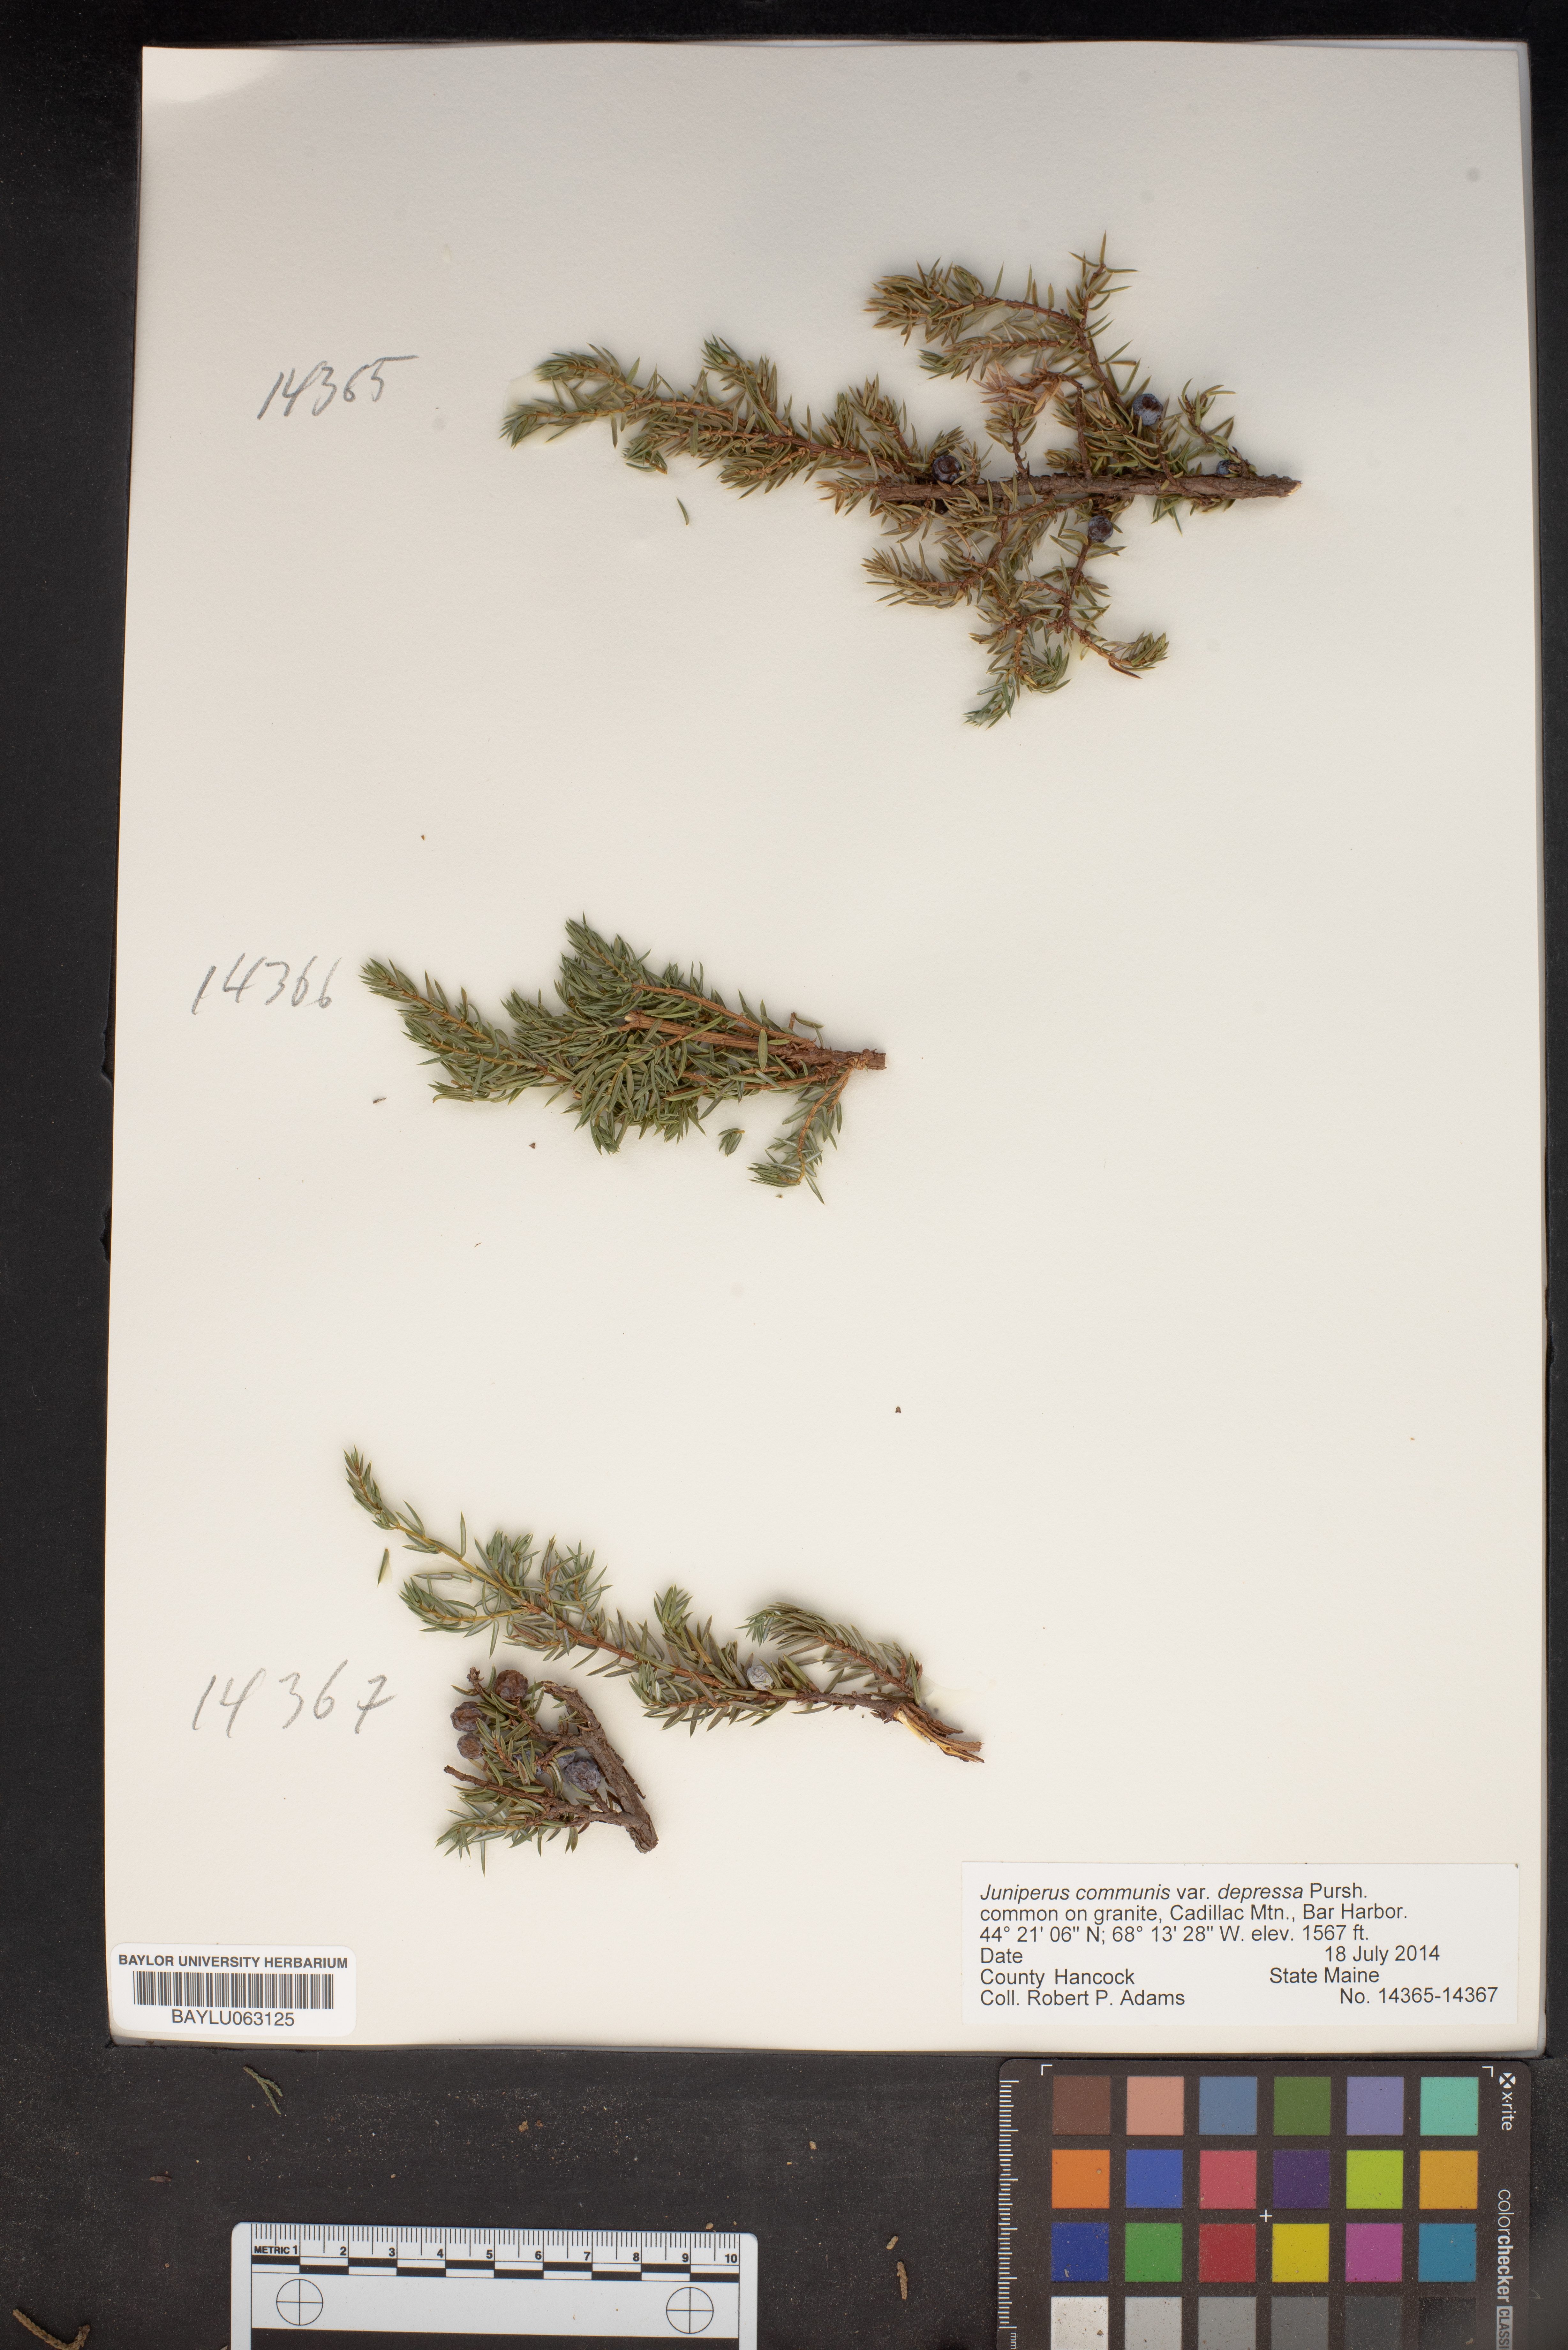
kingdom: Plantae
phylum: Tracheophyta
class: Pinopsida
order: Pinales
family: Cupressaceae
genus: Juniperus
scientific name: Juniperus communis
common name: Common juniper
